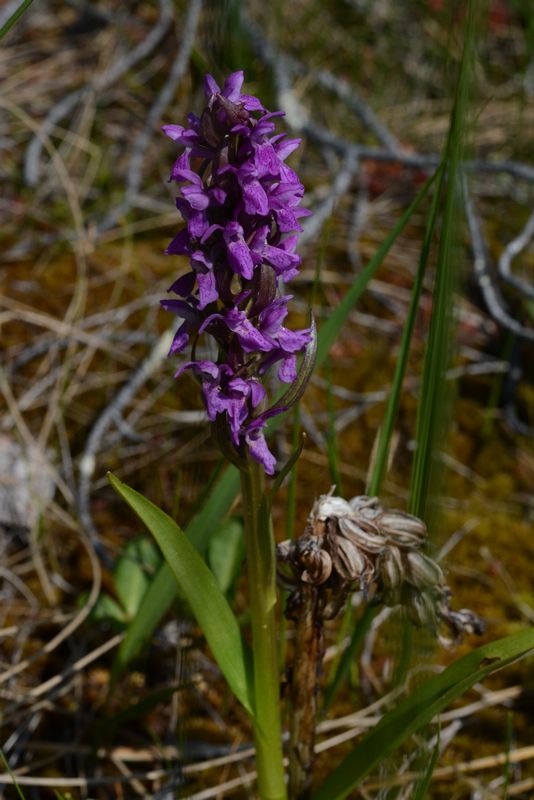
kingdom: Plantae
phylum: Tracheophyta
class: Liliopsida
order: Asparagales
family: Orchidaceae
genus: Dactylorhiza
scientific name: Dactylorhiza incarnata
